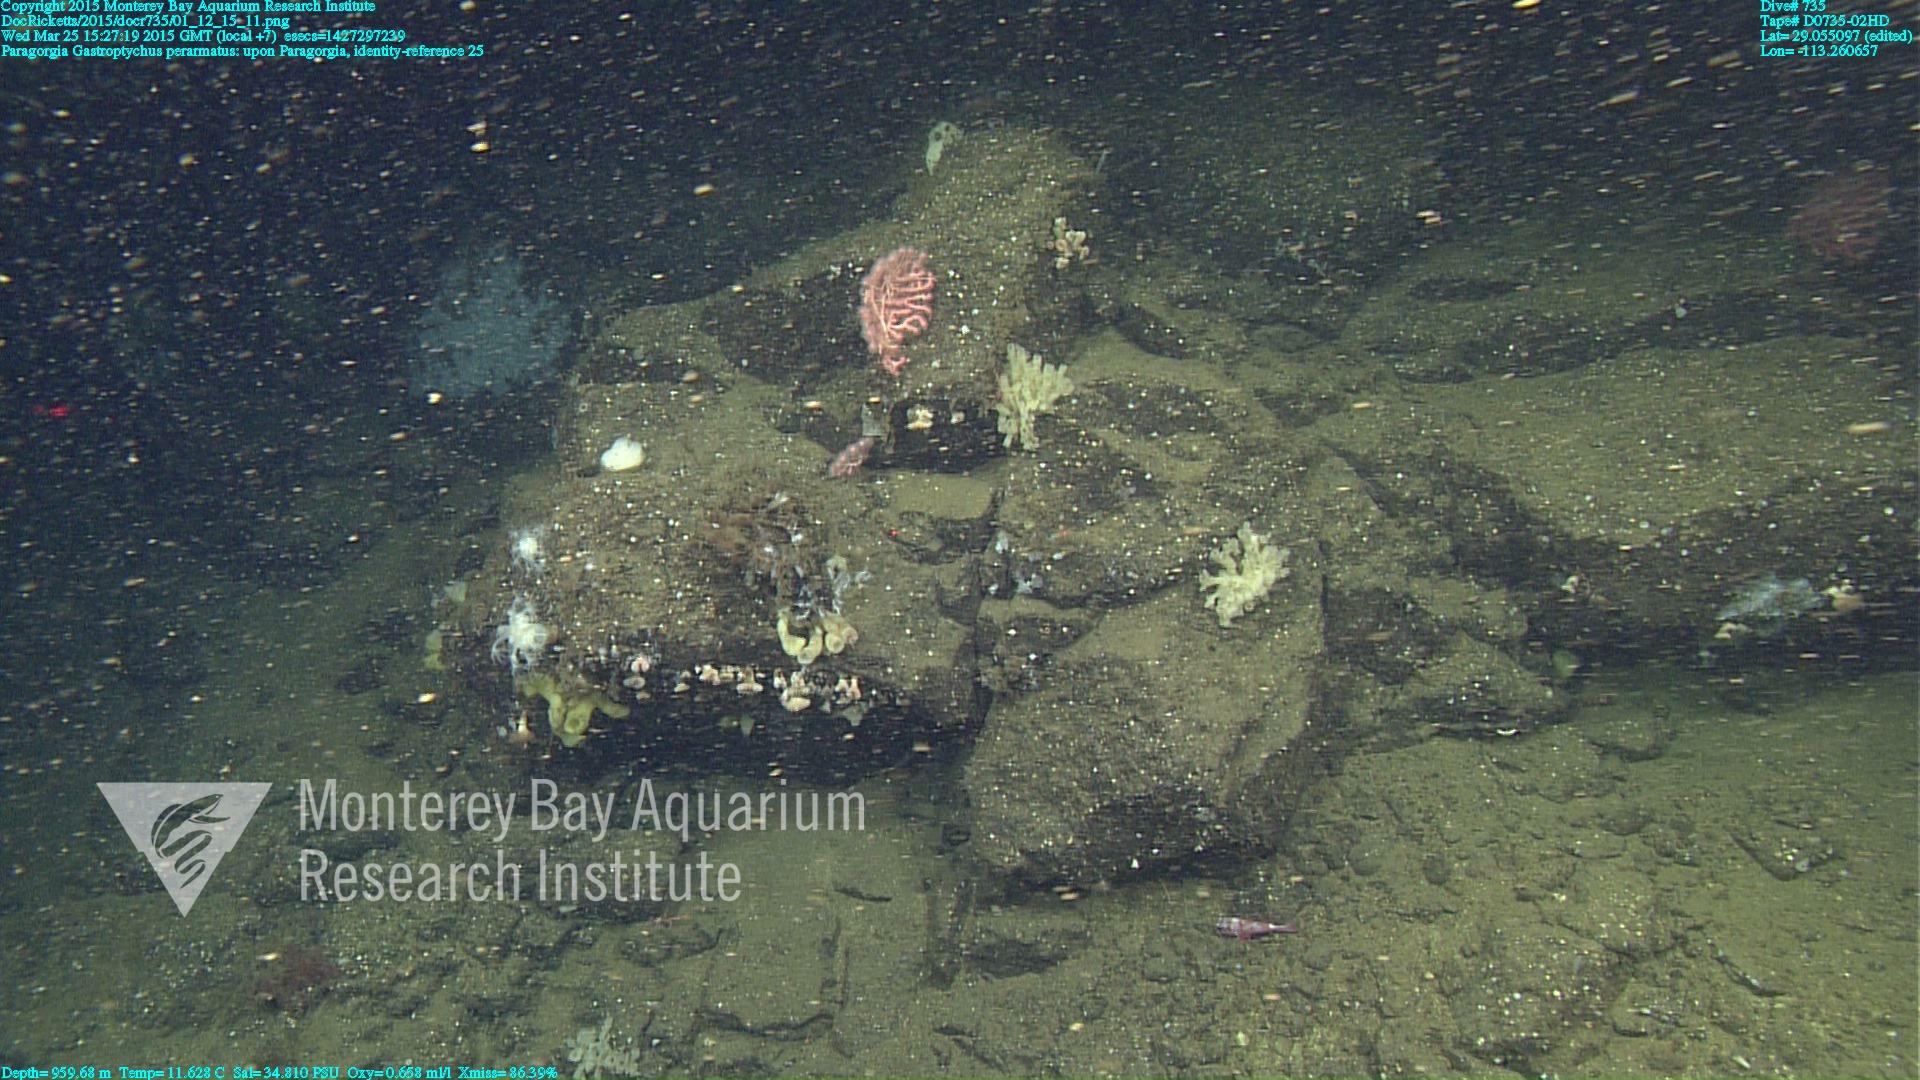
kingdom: Animalia
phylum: Cnidaria
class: Anthozoa
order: Scleralcyonacea
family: Coralliidae
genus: Paragorgia
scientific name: Paragorgia
